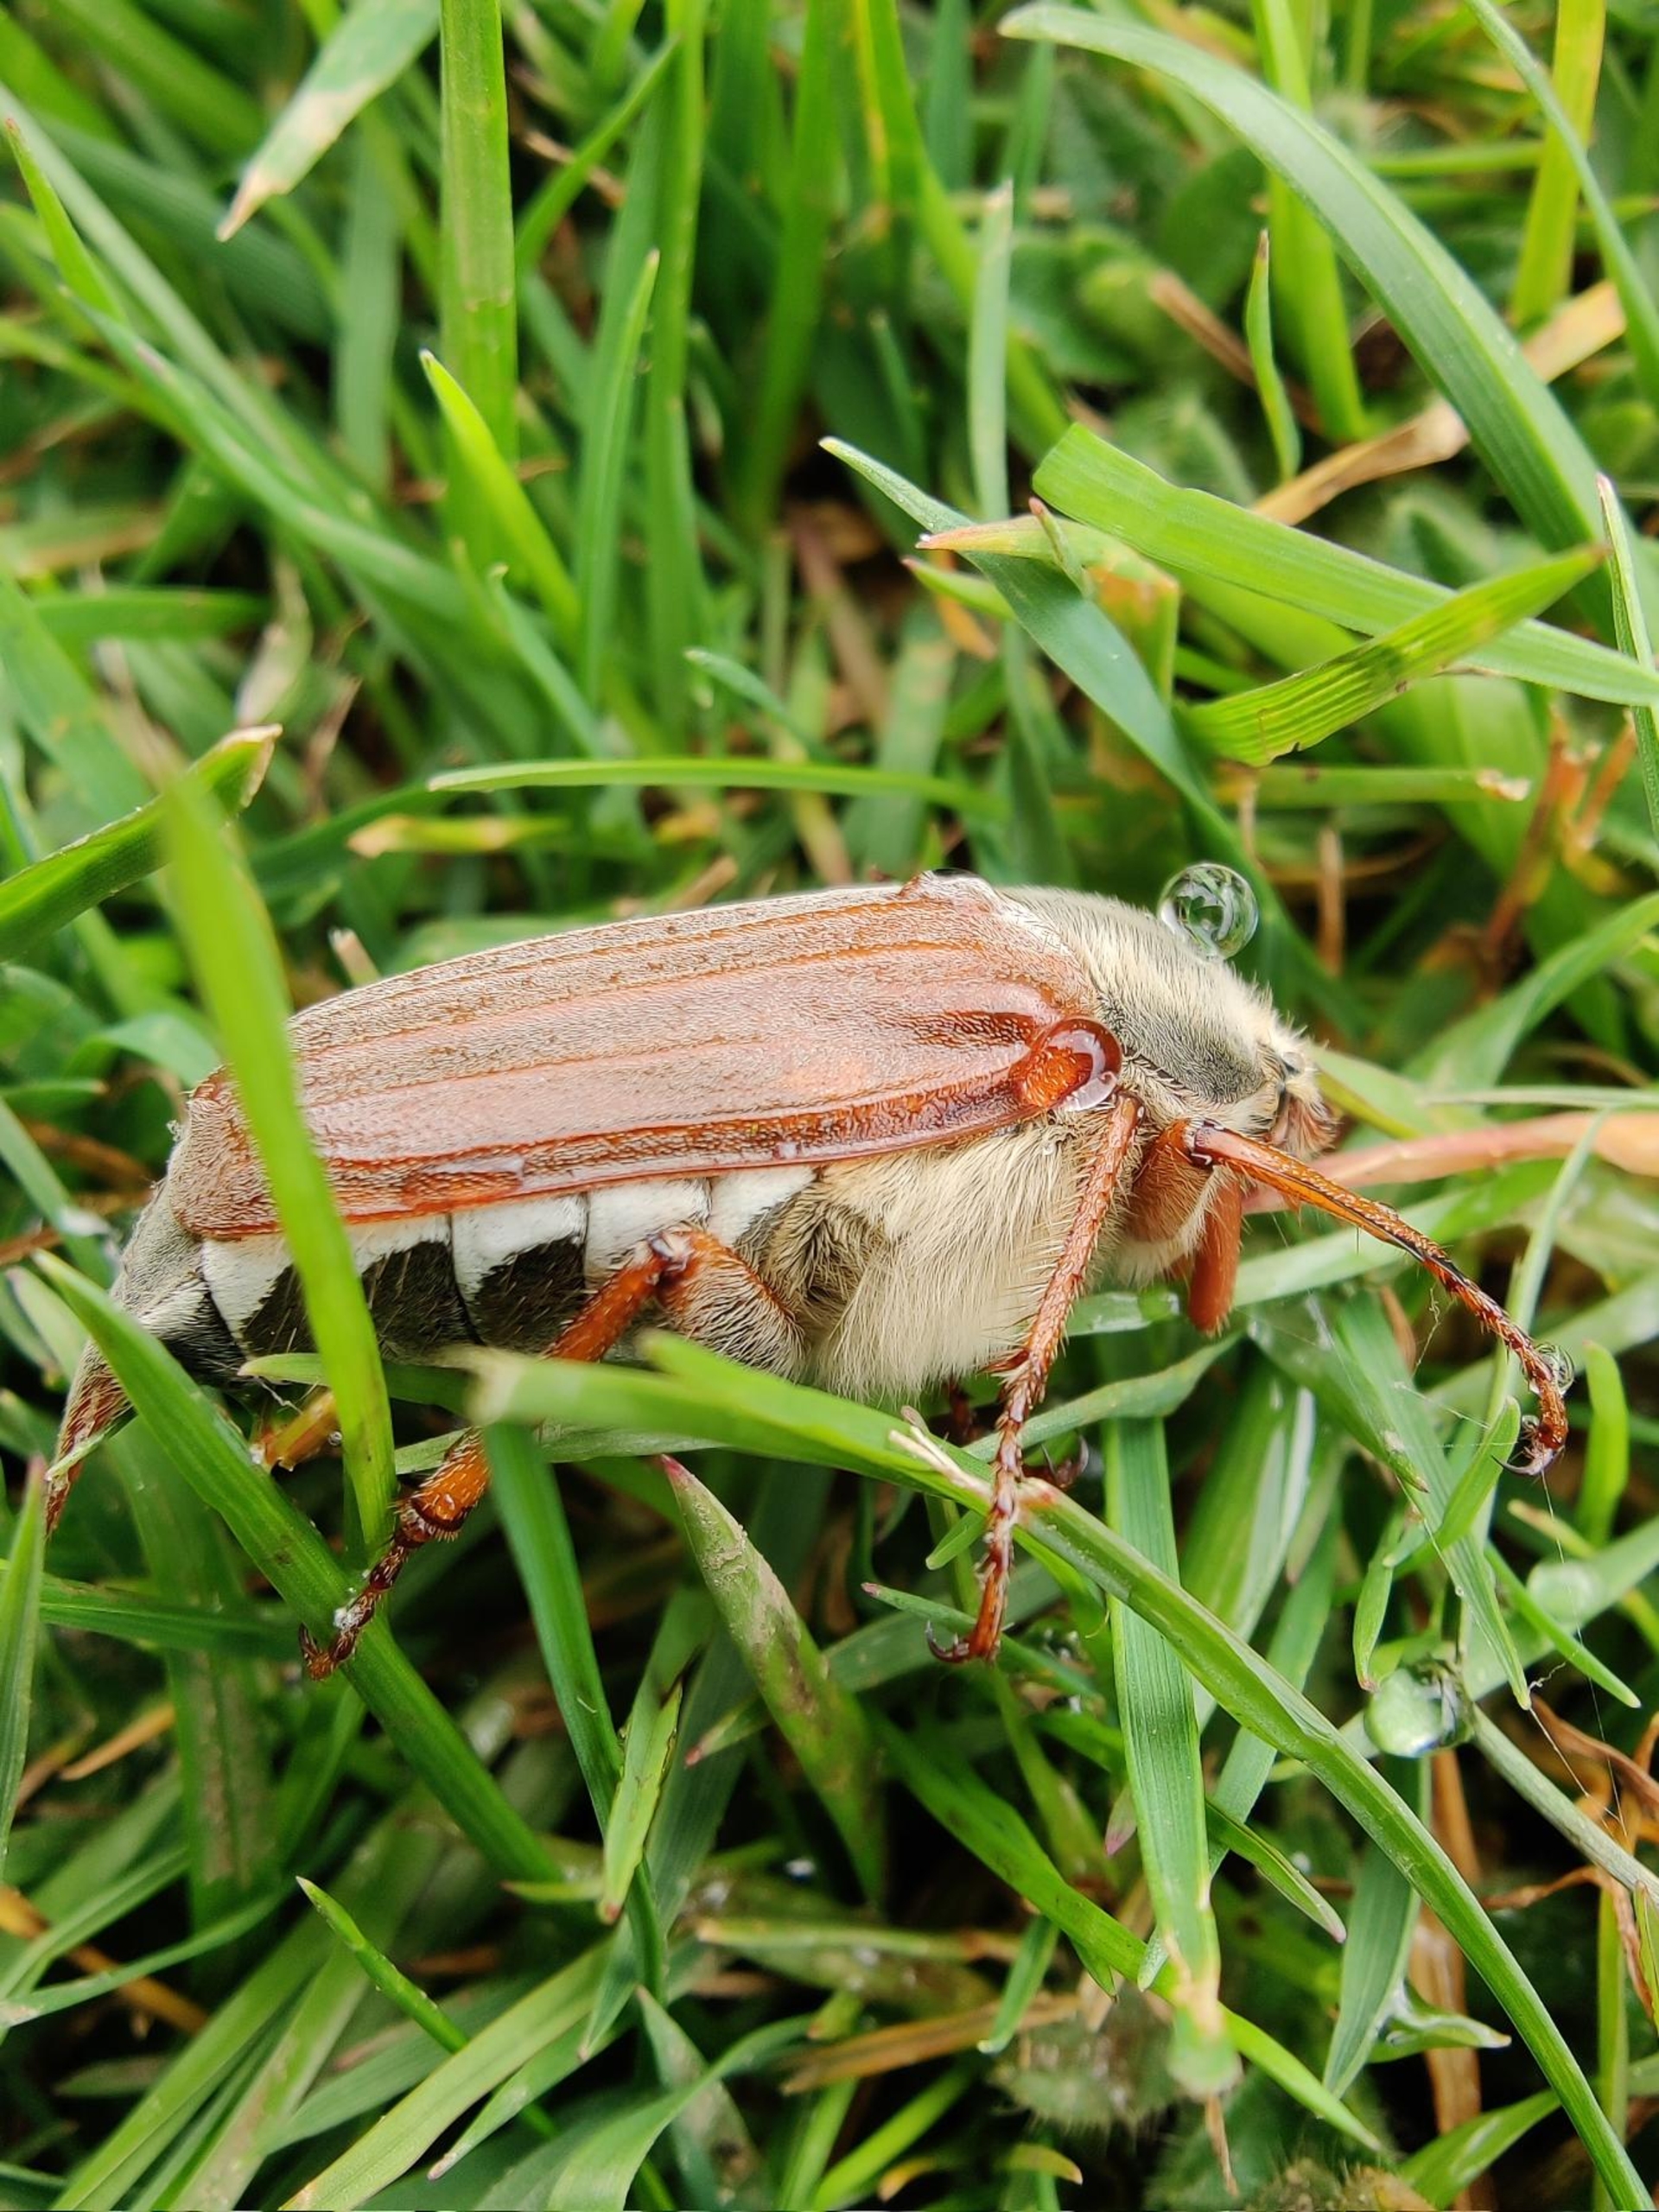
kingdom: Animalia
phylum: Arthropoda
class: Insecta
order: Coleoptera
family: Scarabaeidae
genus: Melolontha
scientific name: Melolontha melolontha
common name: Almindelig oldenborre
